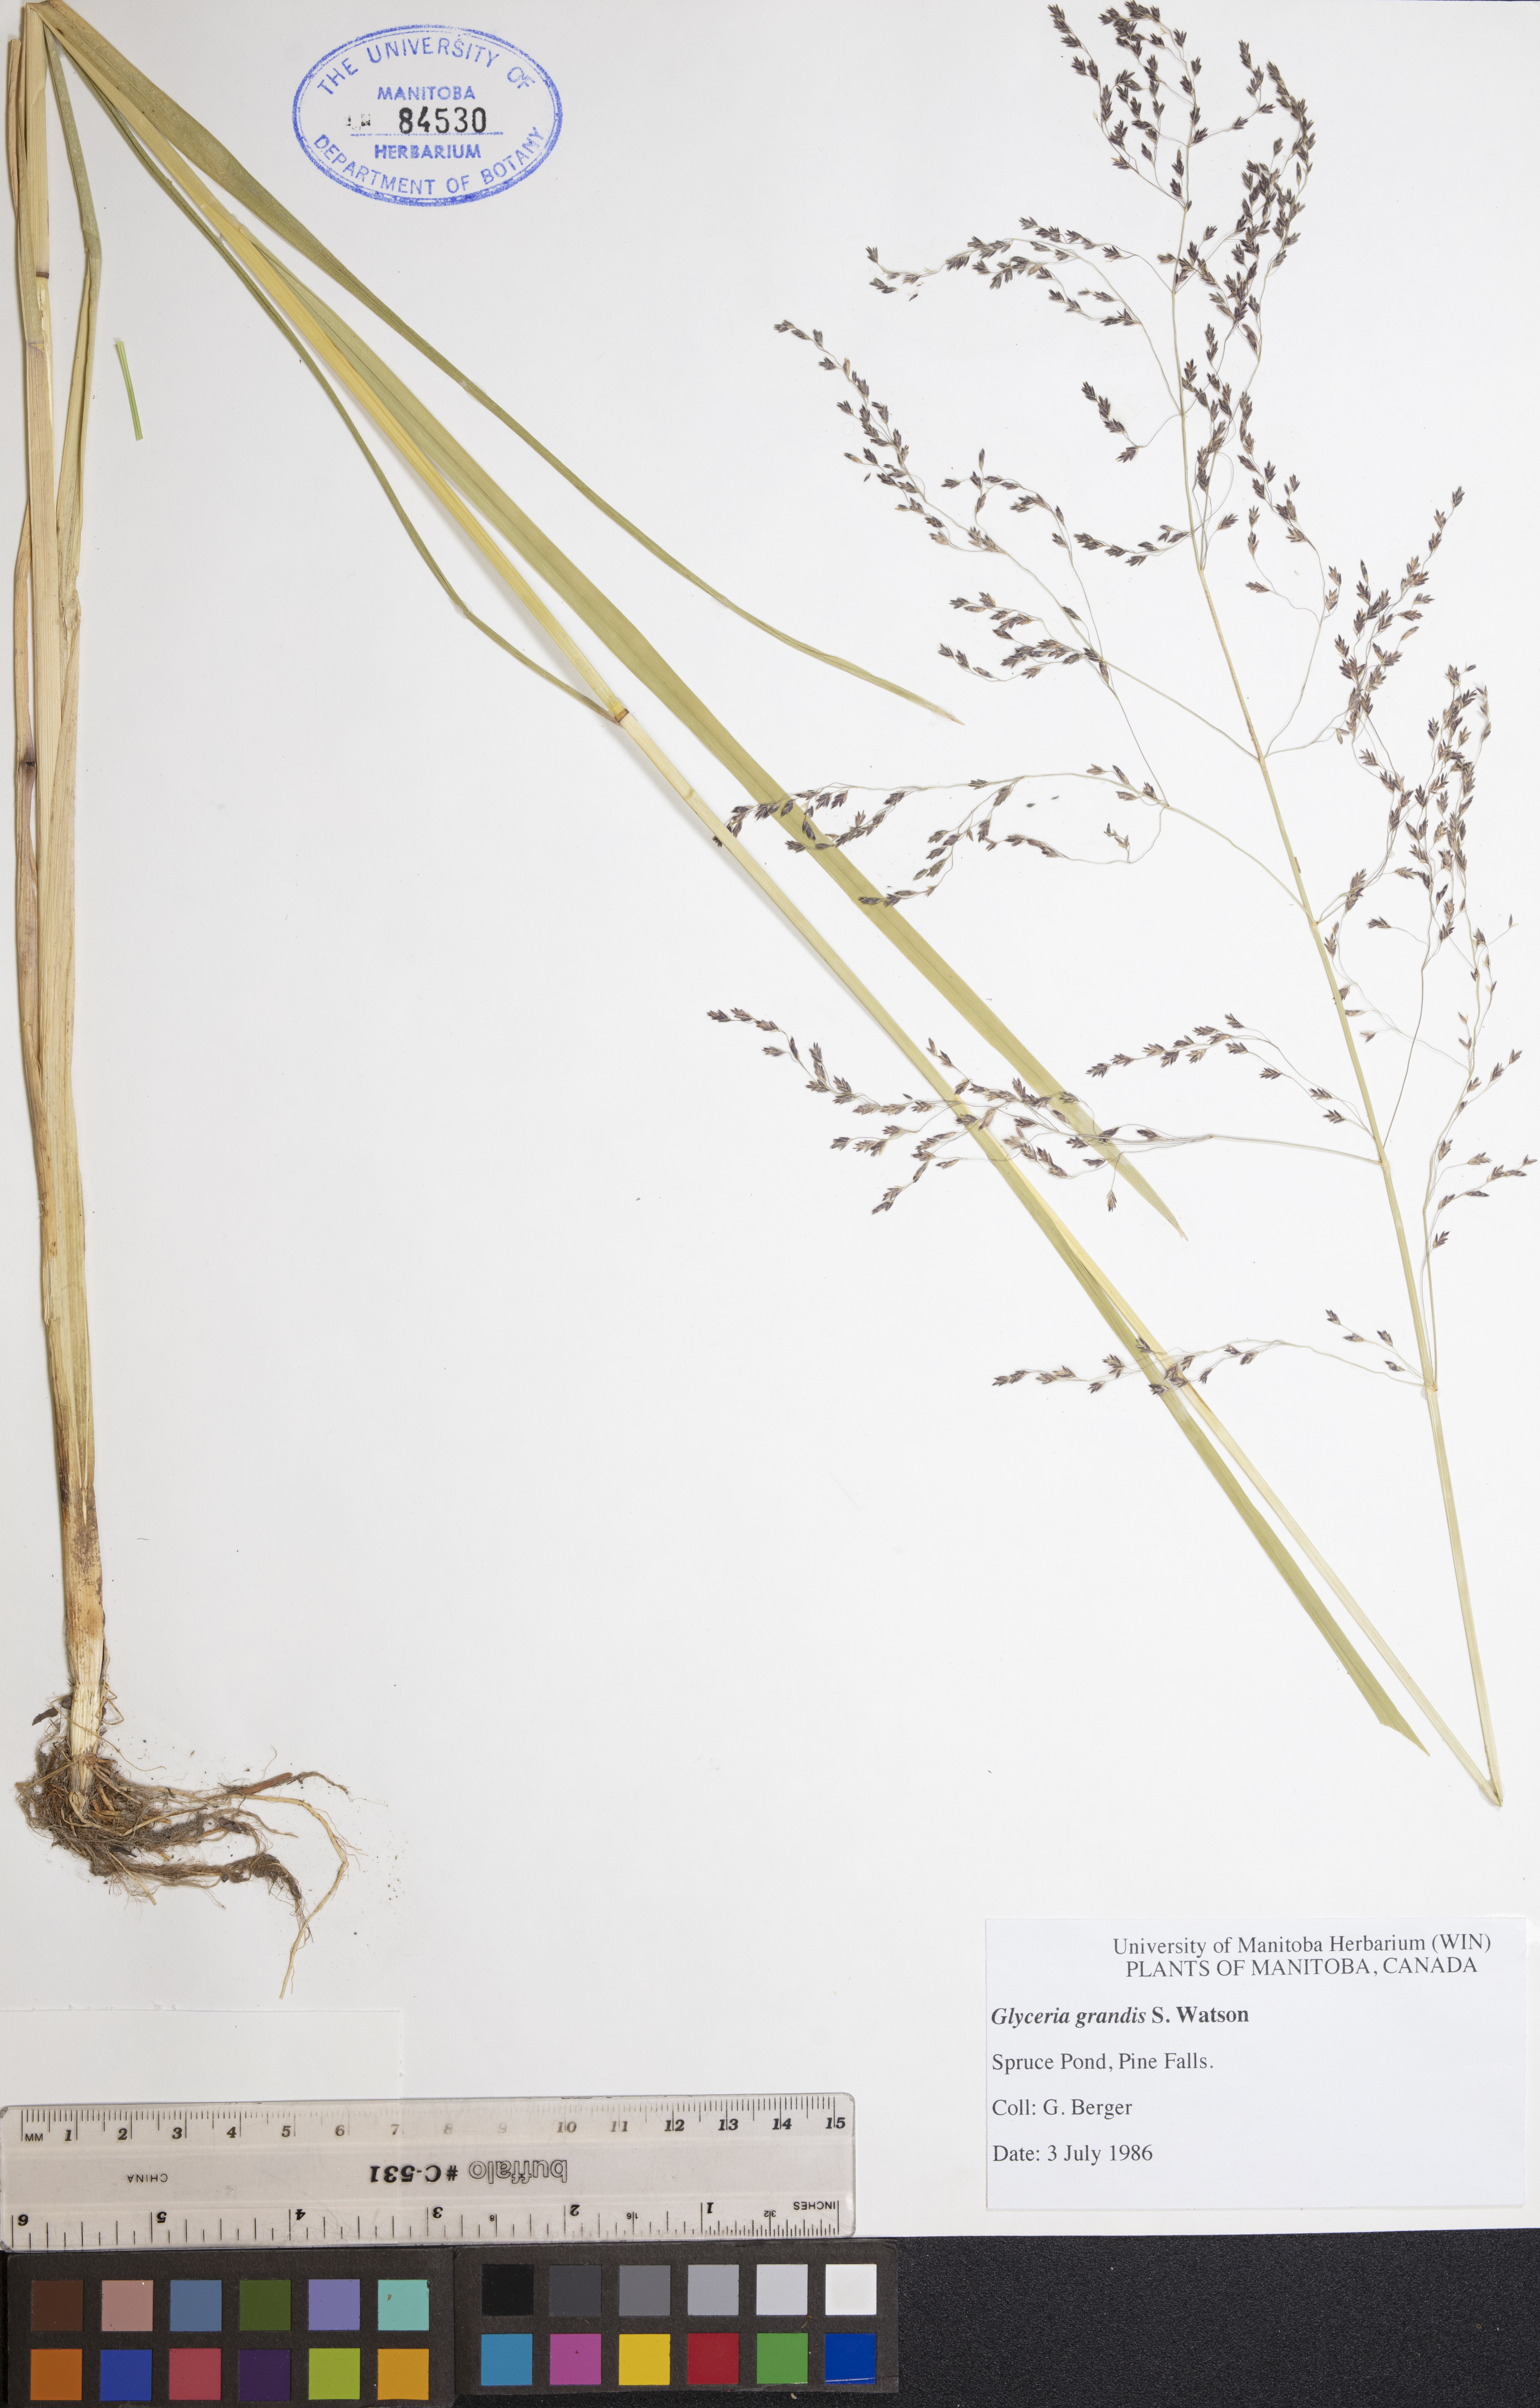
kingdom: Plantae
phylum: Tracheophyta
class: Liliopsida
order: Poales
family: Poaceae
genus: Glyceria
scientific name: Glyceria grandis
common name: American glyceria
